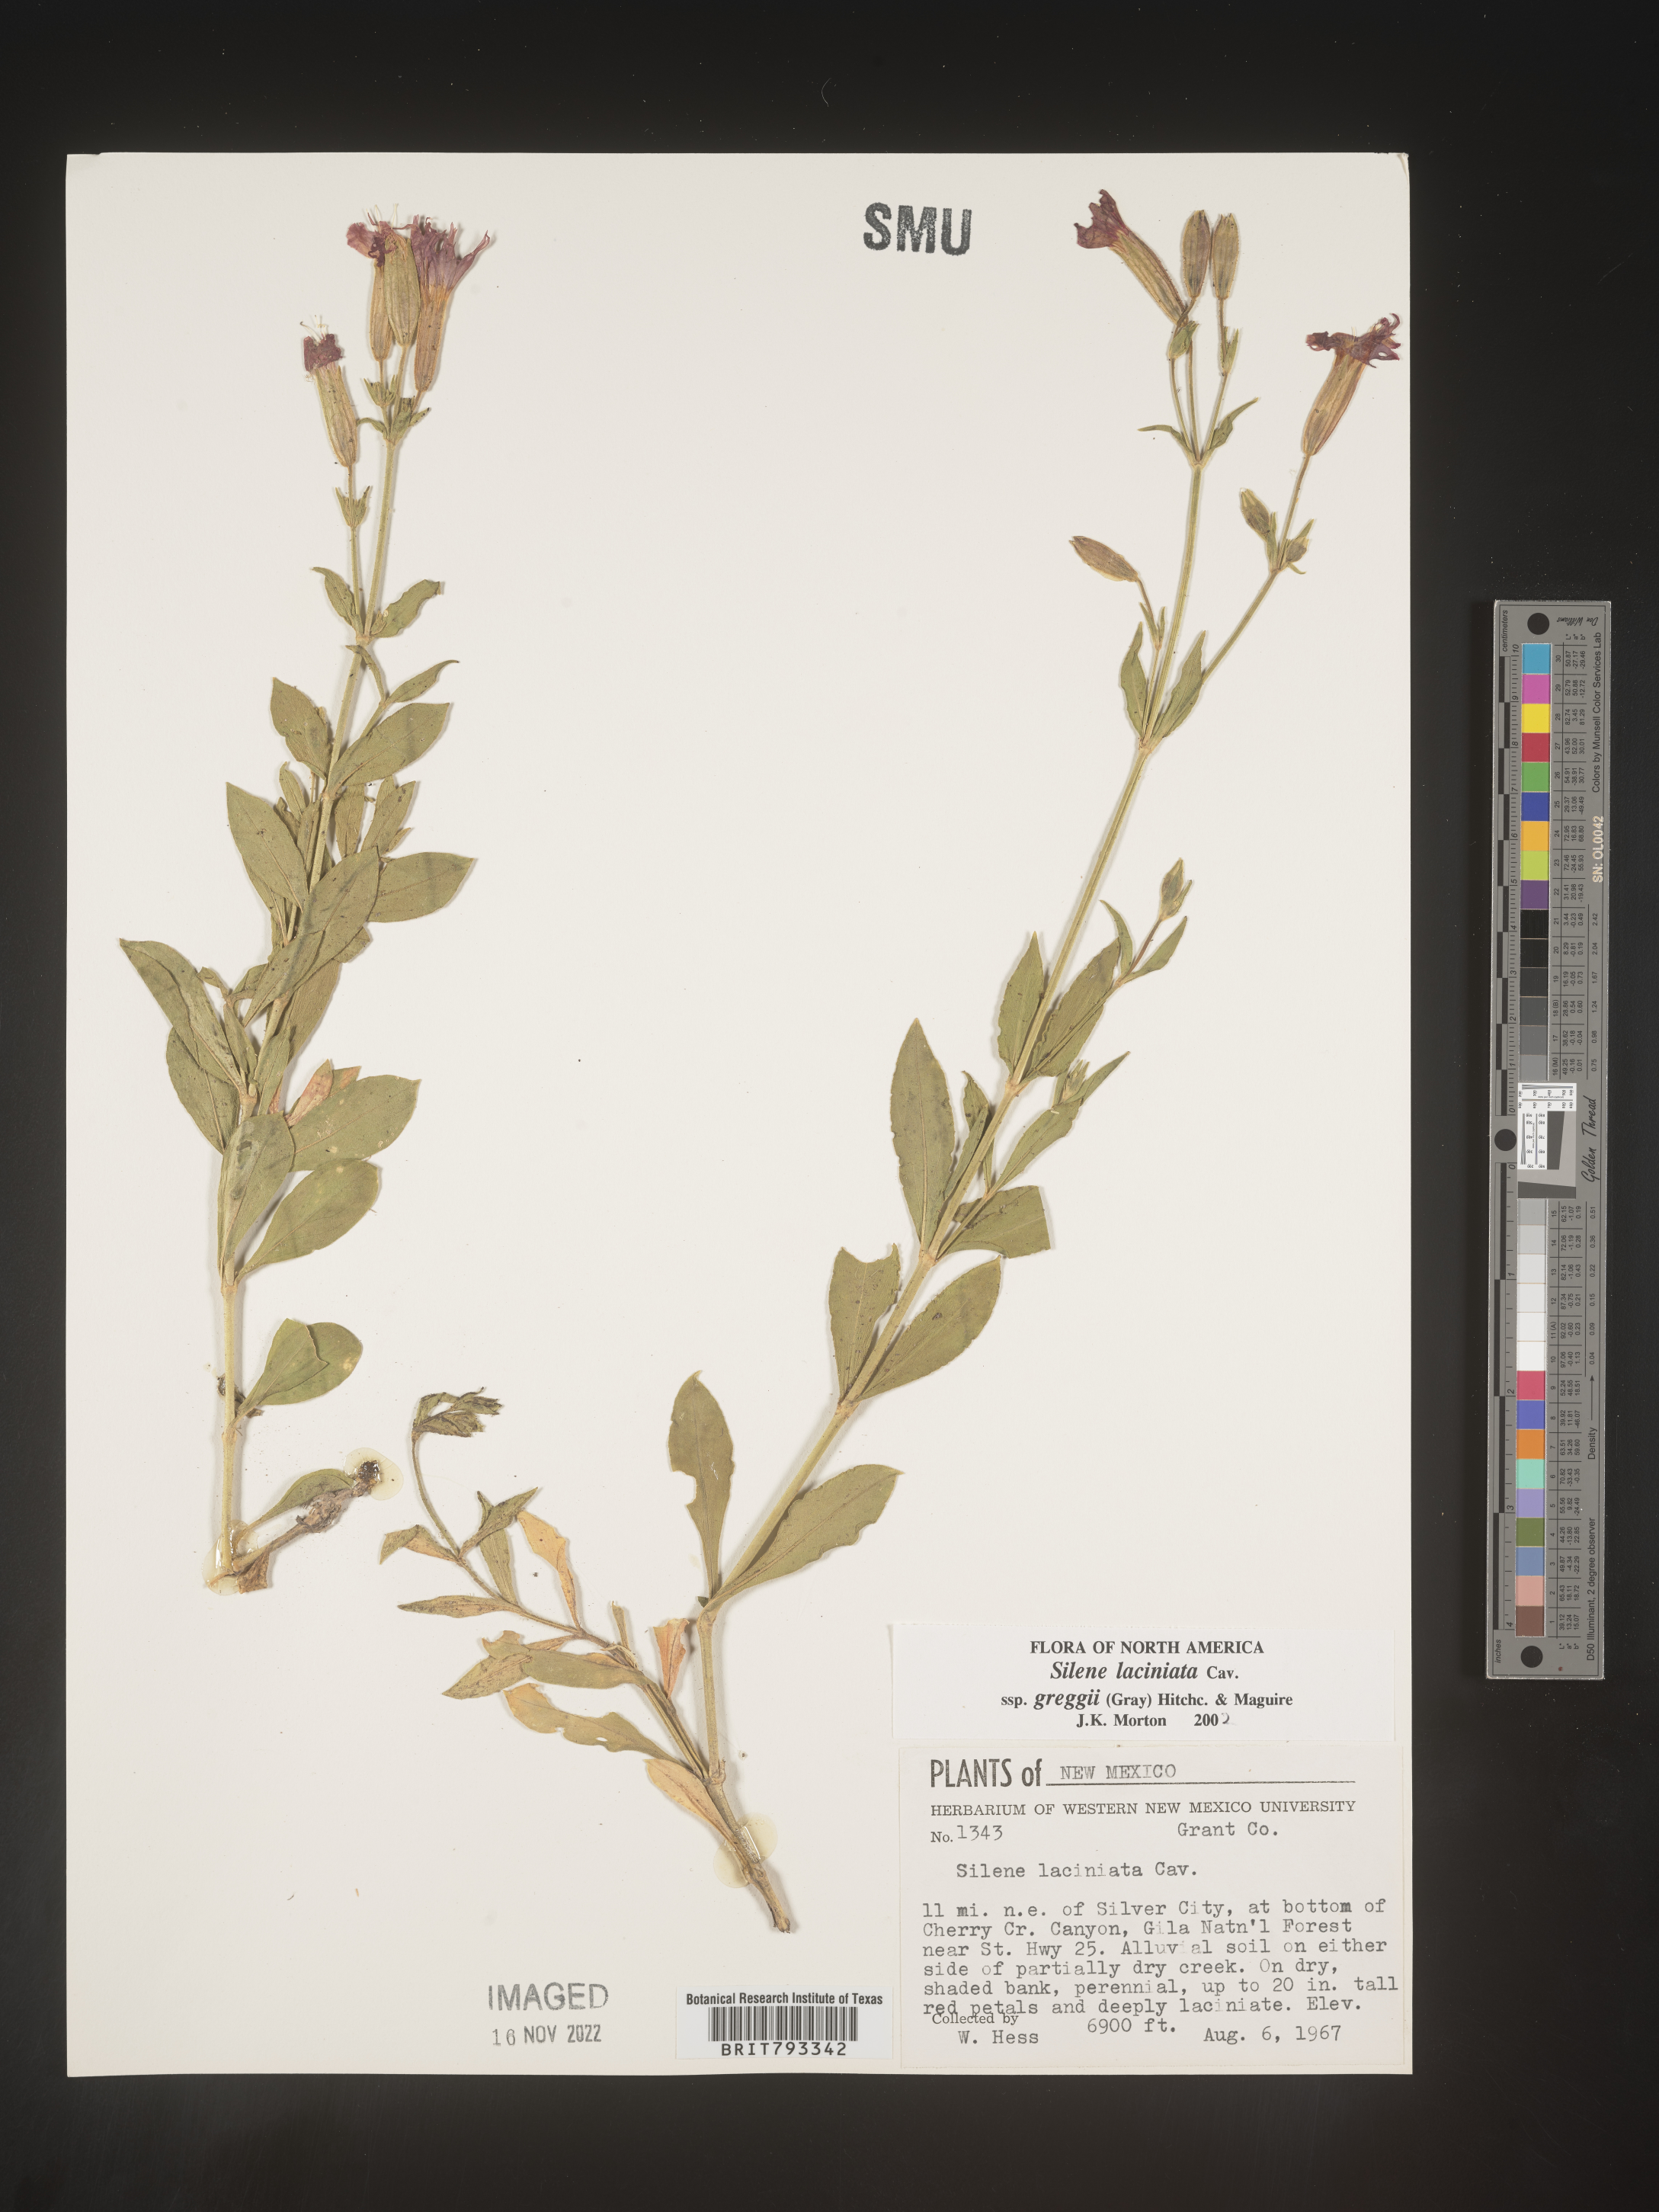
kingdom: Plantae
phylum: Tracheophyta
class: Magnoliopsida
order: Caryophyllales
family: Caryophyllaceae
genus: Silene
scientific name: Silene laciniata
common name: Indian-pink
